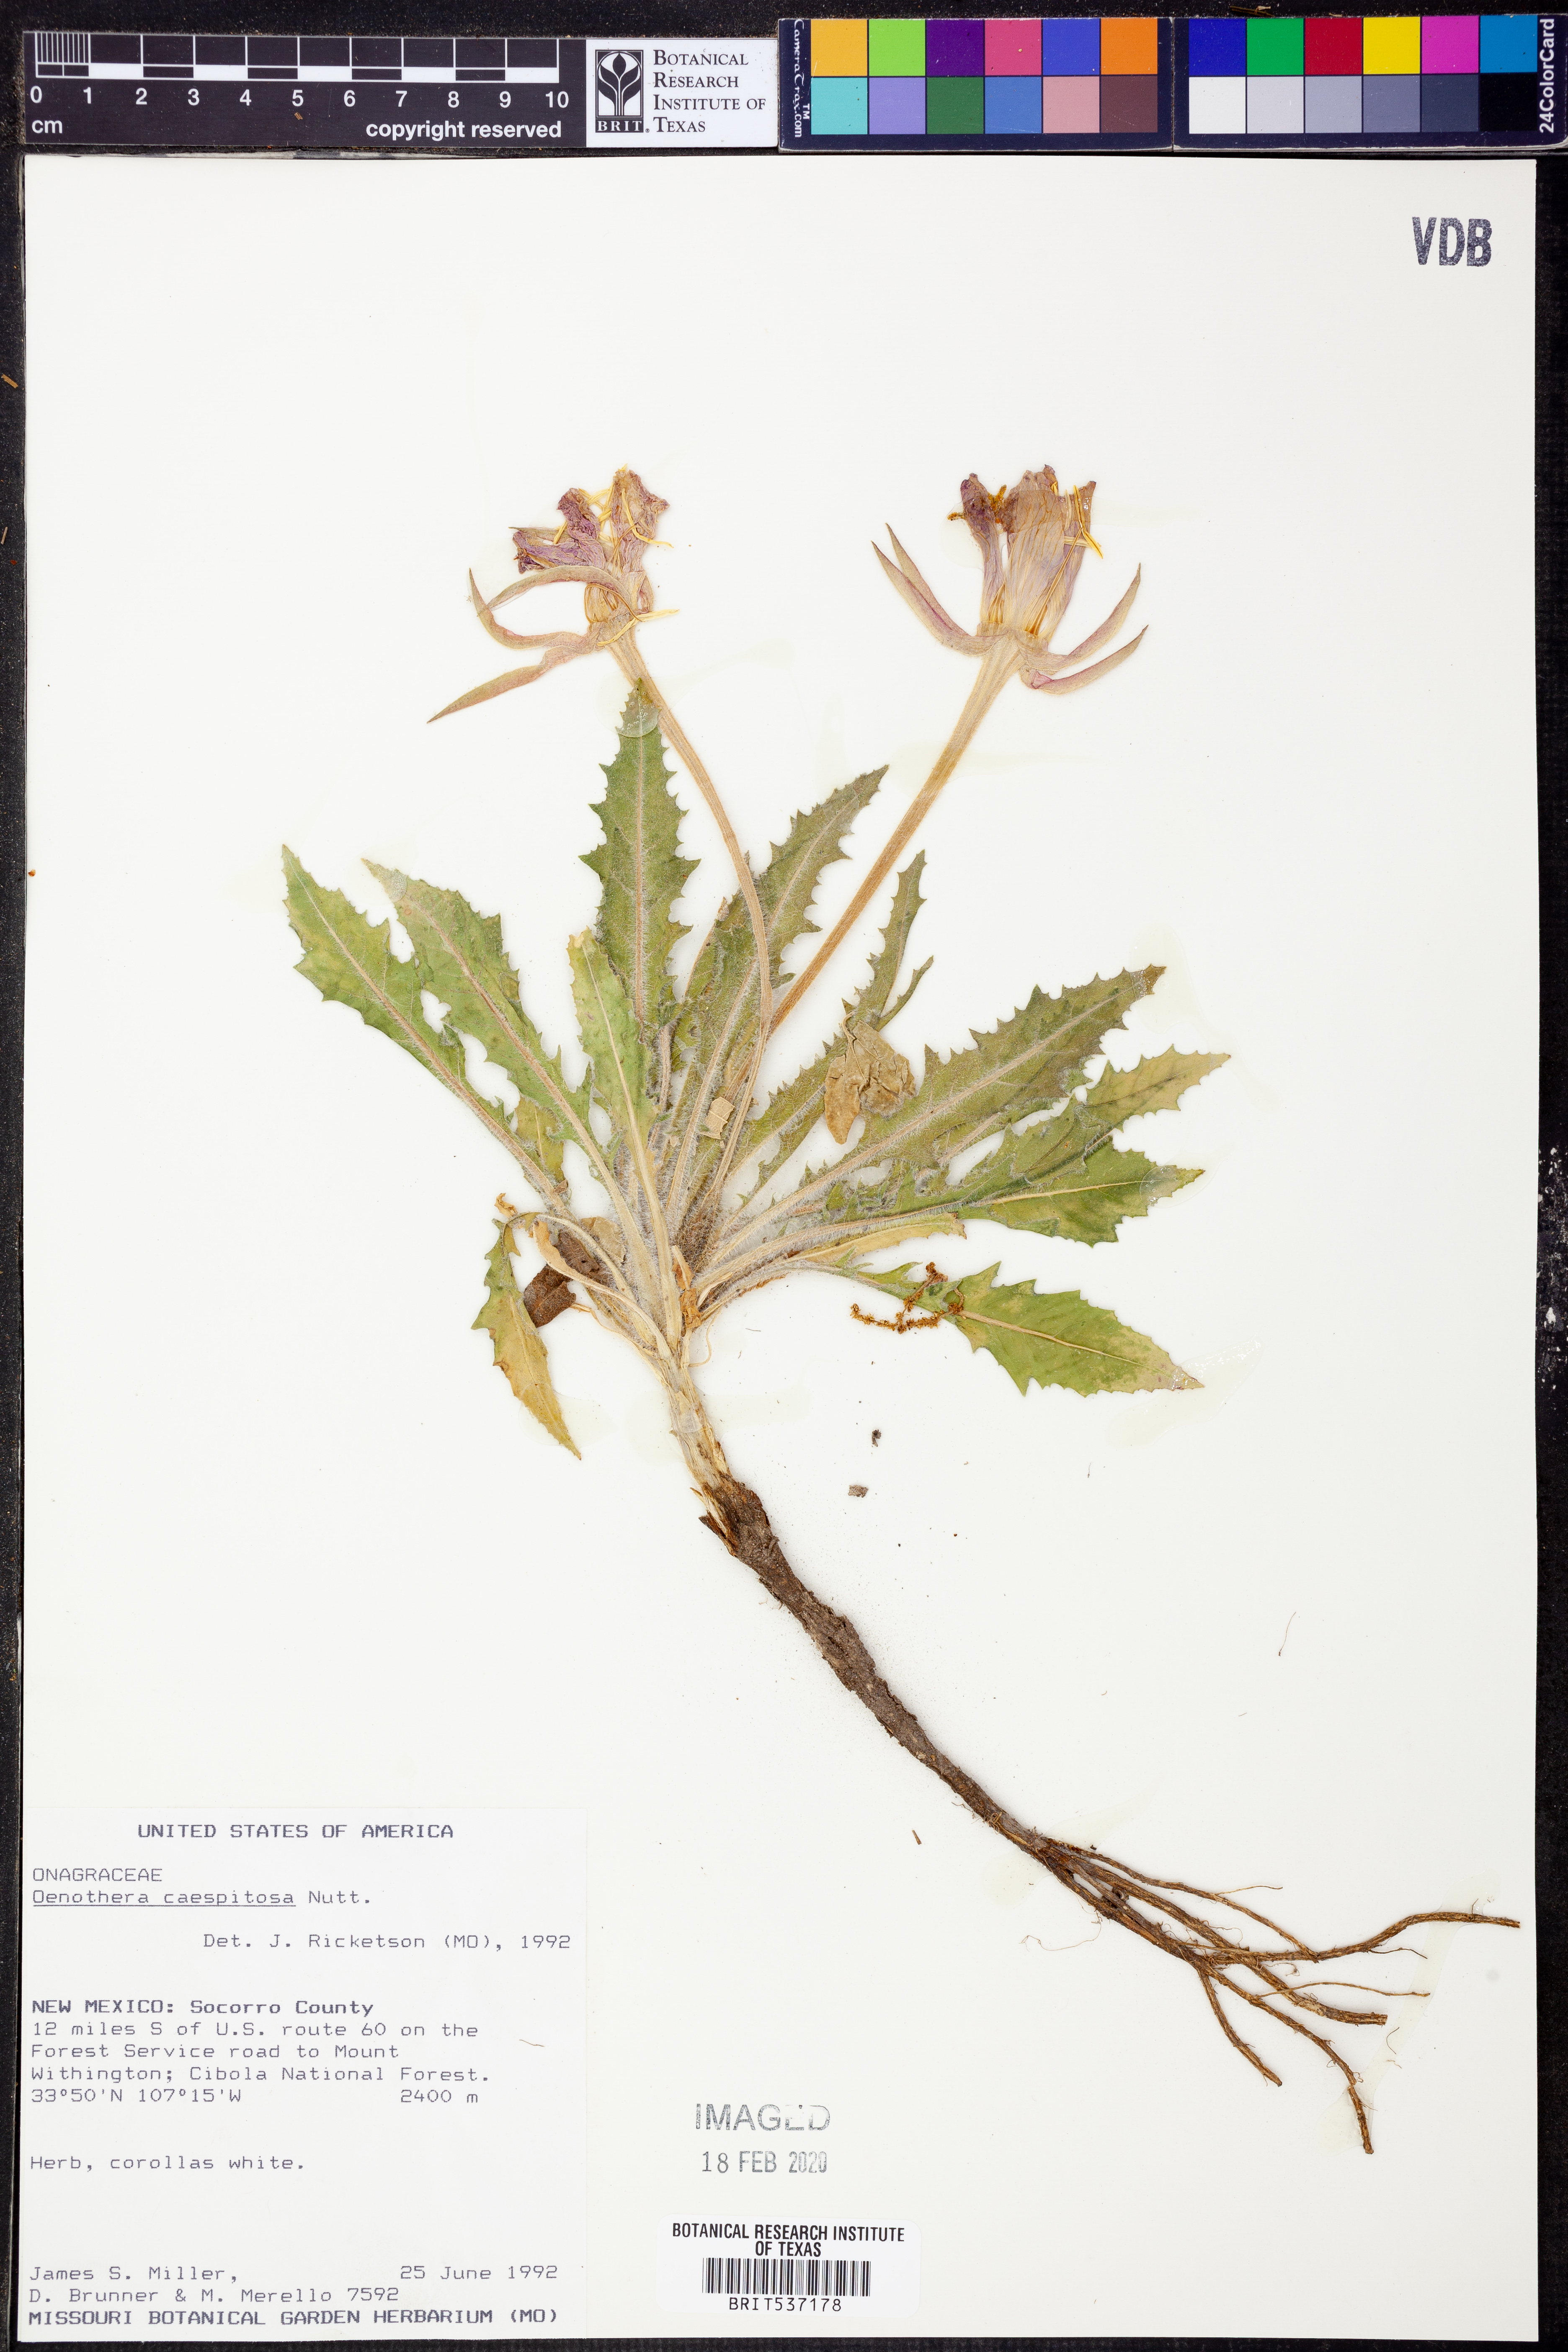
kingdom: Plantae
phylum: Tracheophyta
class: Magnoliopsida
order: Myrtales
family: Onagraceae
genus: Oenothera
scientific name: Oenothera cespitosa
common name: Tufted evening-primrose
